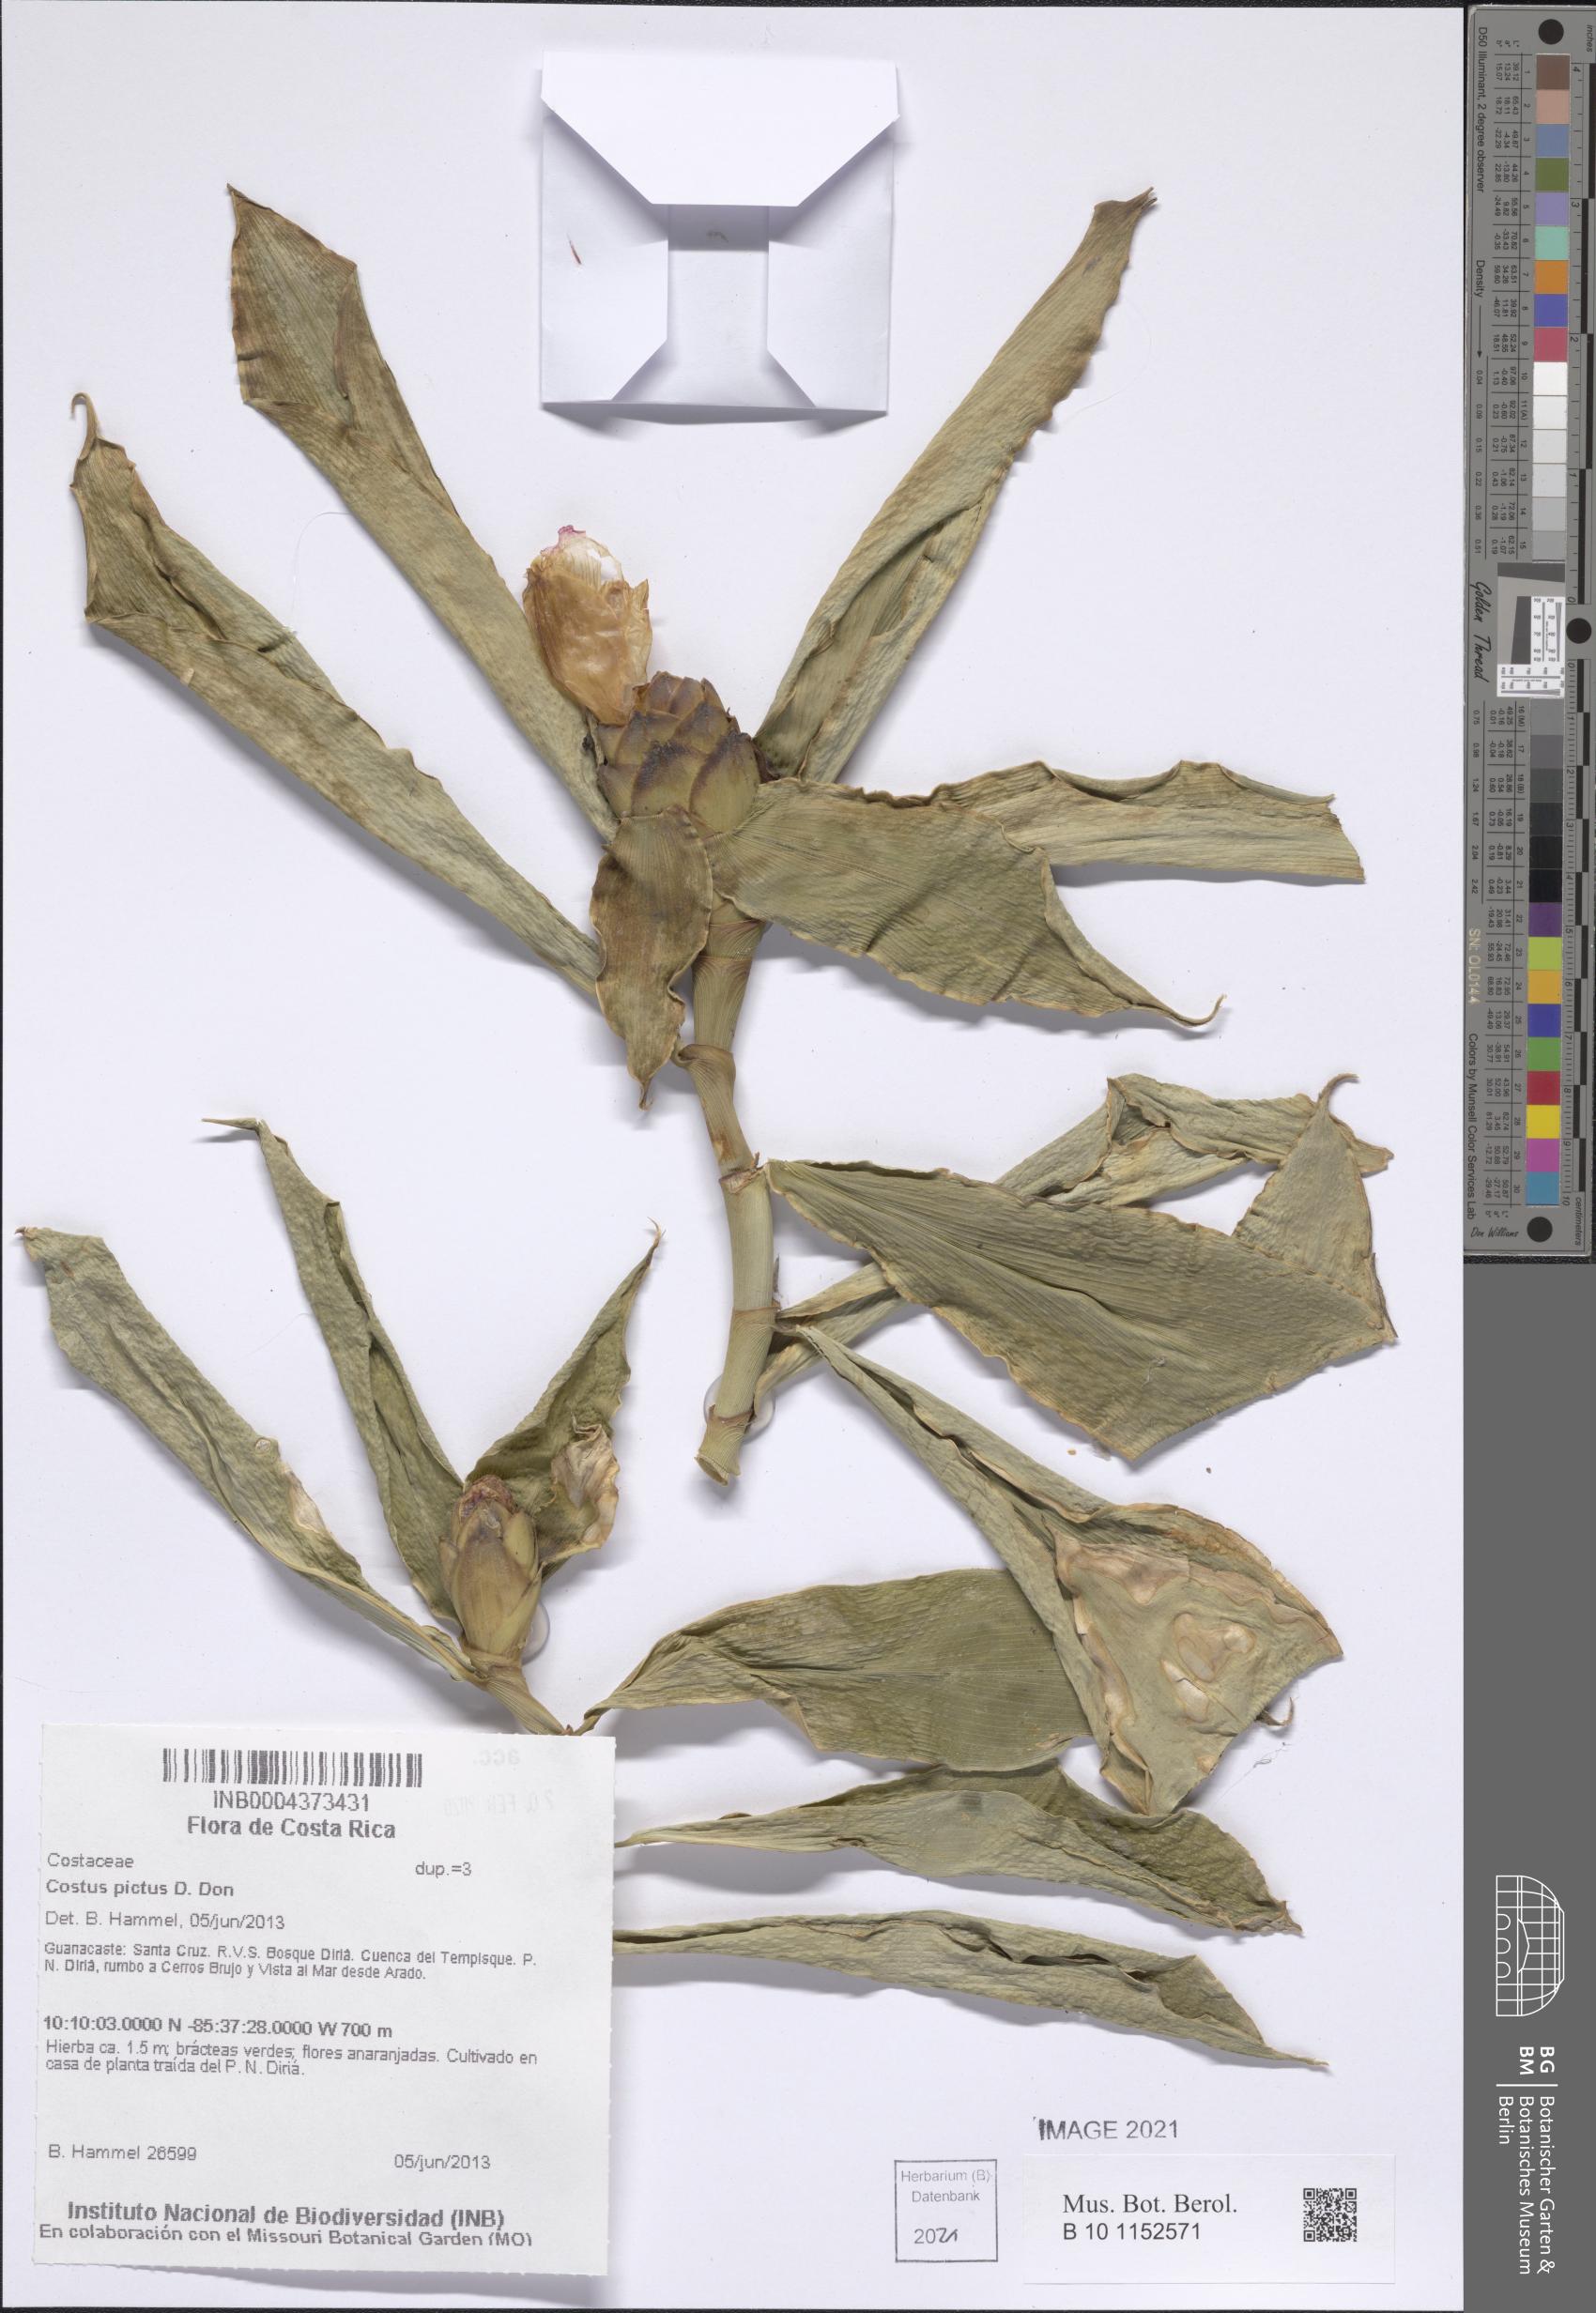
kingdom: Plantae
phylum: Tracheophyta
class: Liliopsida
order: Zingiberales
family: Costaceae
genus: Costus
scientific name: Costus pictus
